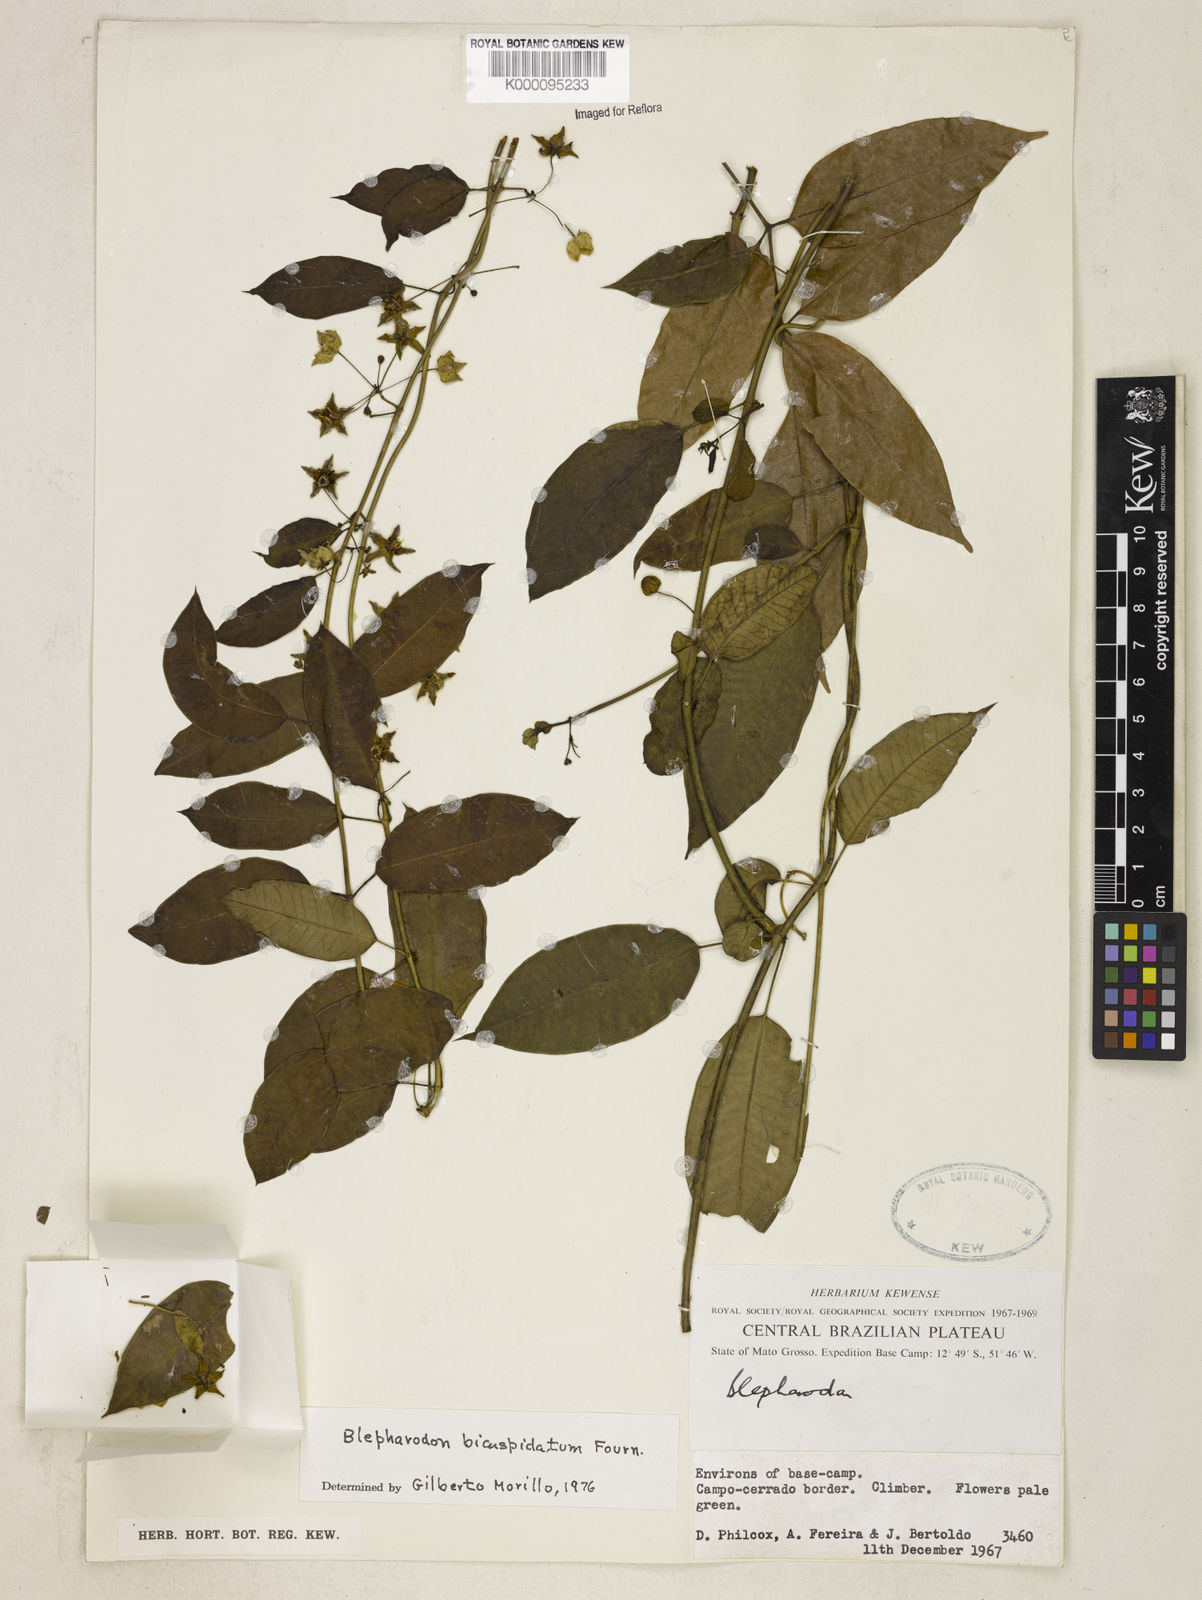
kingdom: Plantae
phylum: Tracheophyta
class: Magnoliopsida
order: Gentianales
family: Apocynaceae
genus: Blepharodon
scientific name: Blepharodon bicuspidatum
